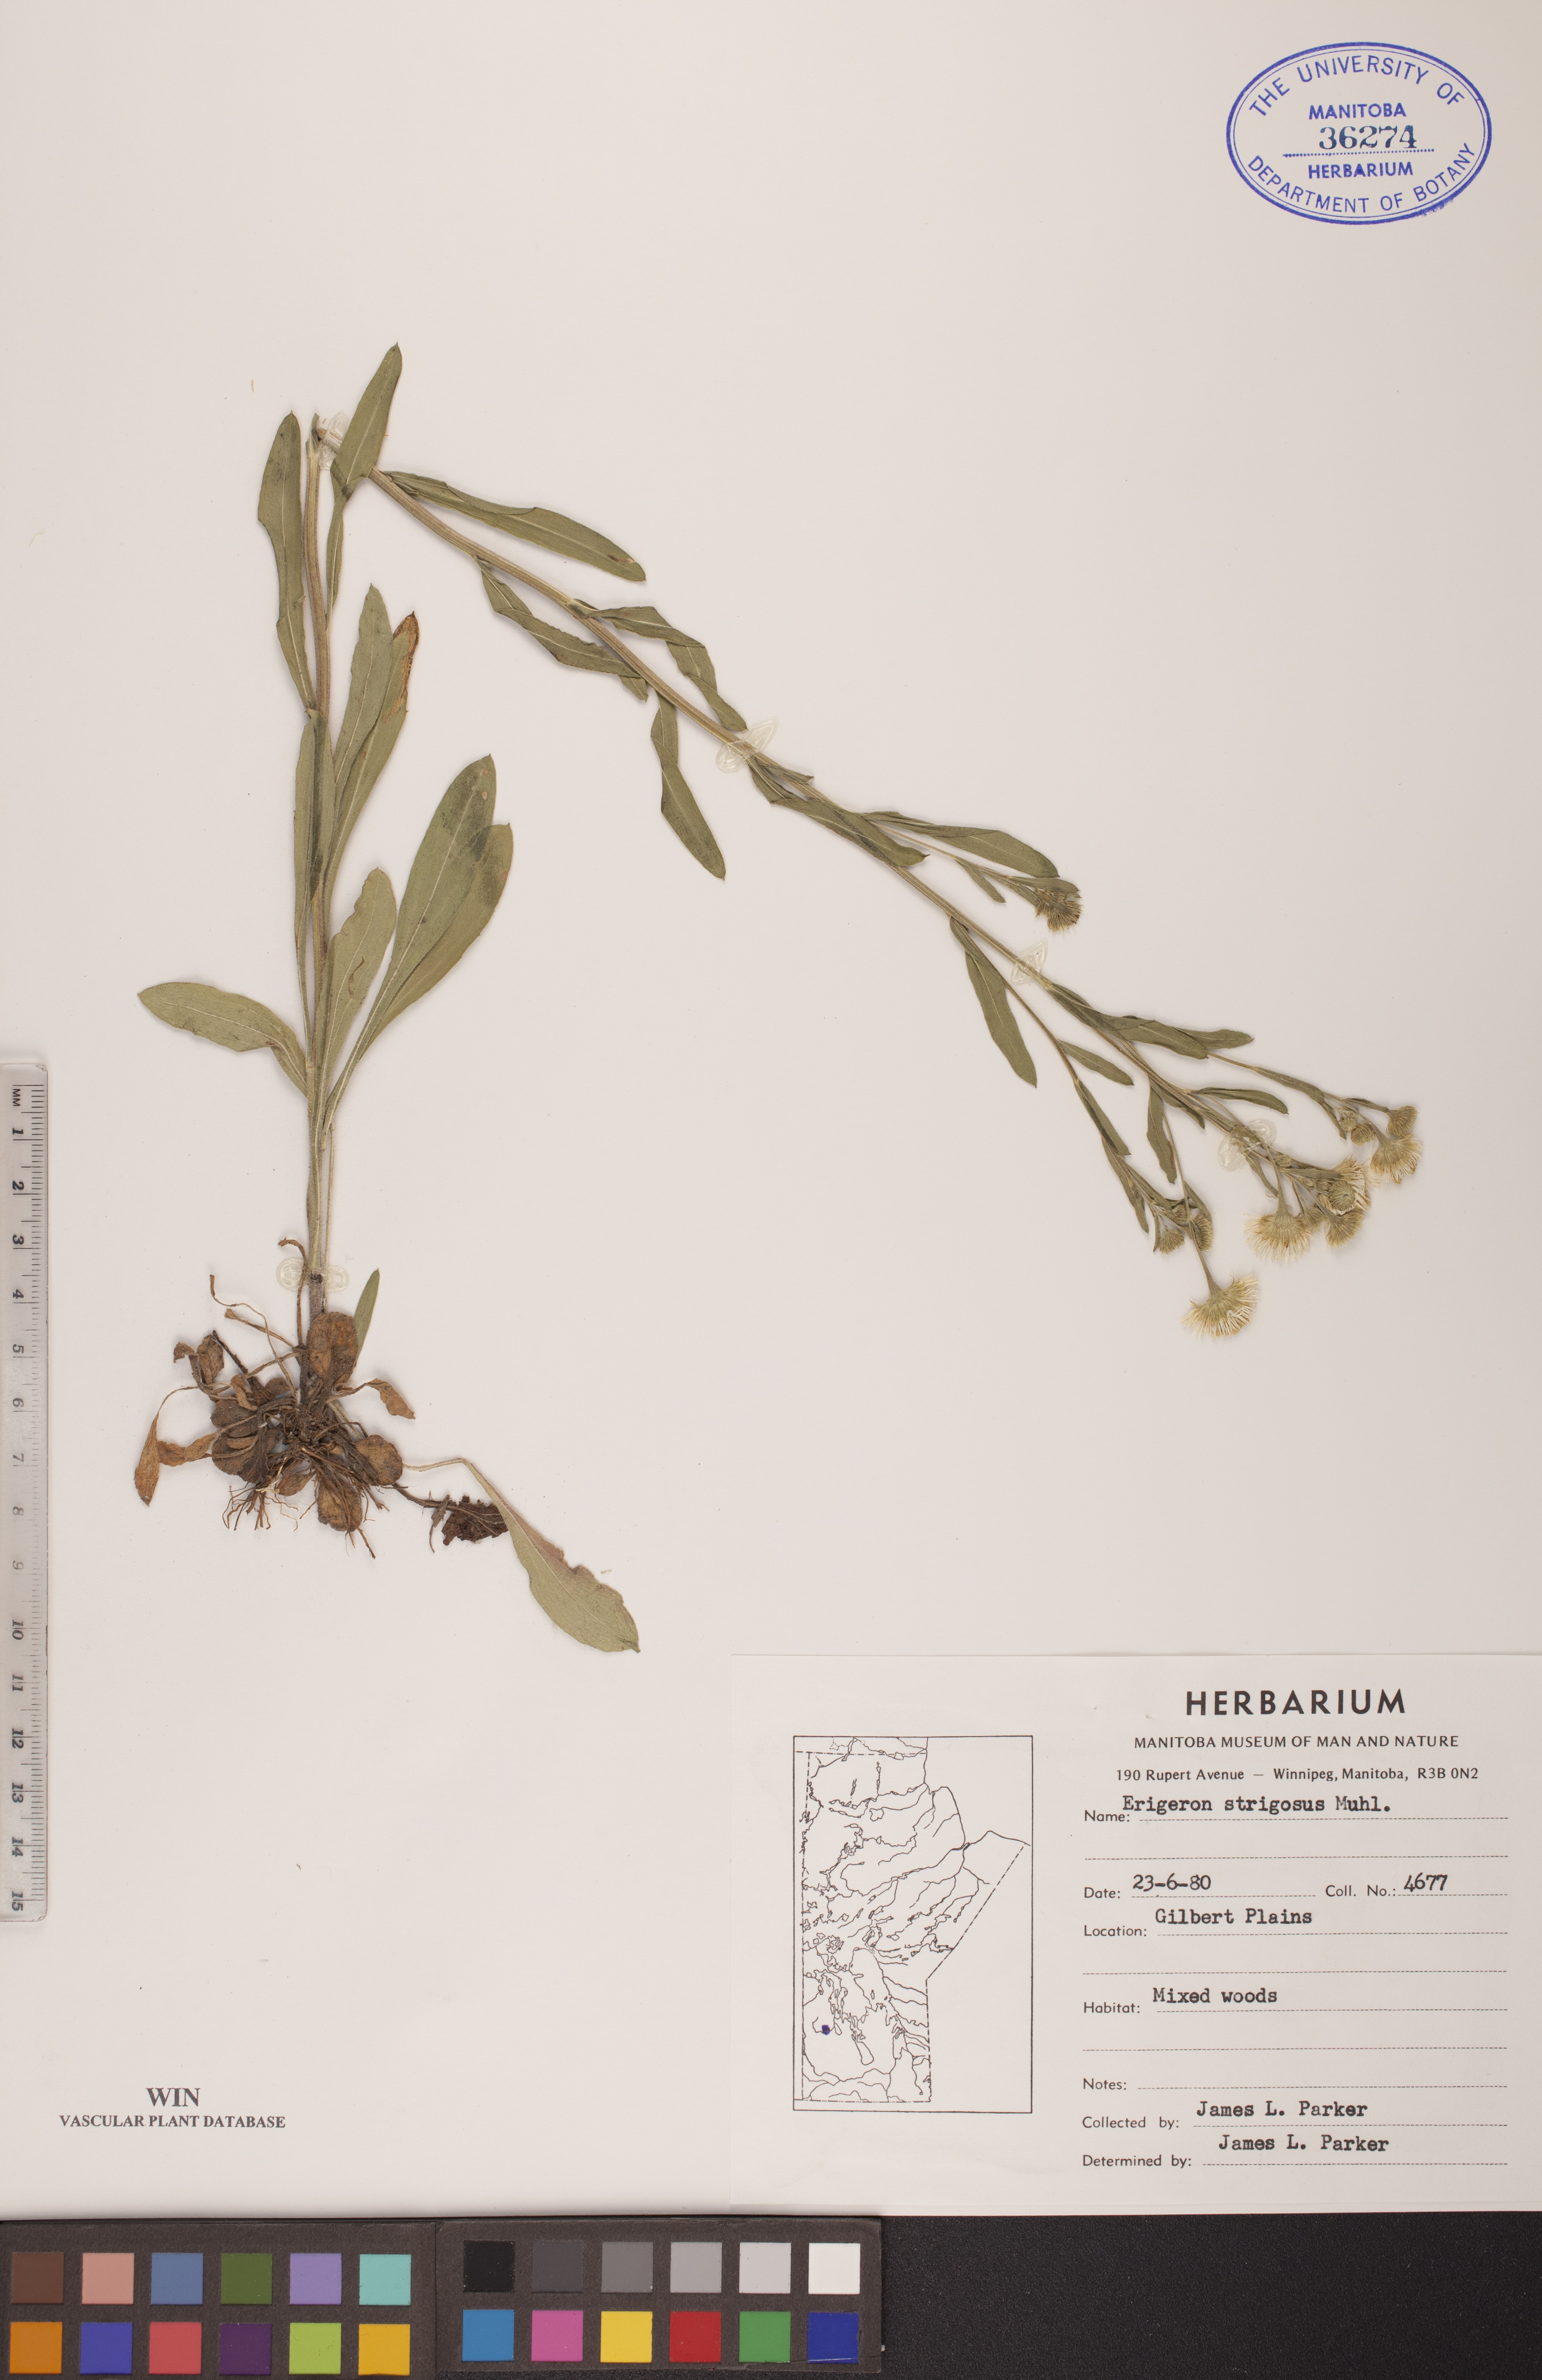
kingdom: Plantae
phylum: Tracheophyta
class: Magnoliopsida
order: Asterales
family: Asteraceae
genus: Erigeron
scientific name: Erigeron strigosus
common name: Common eastern fleabane
